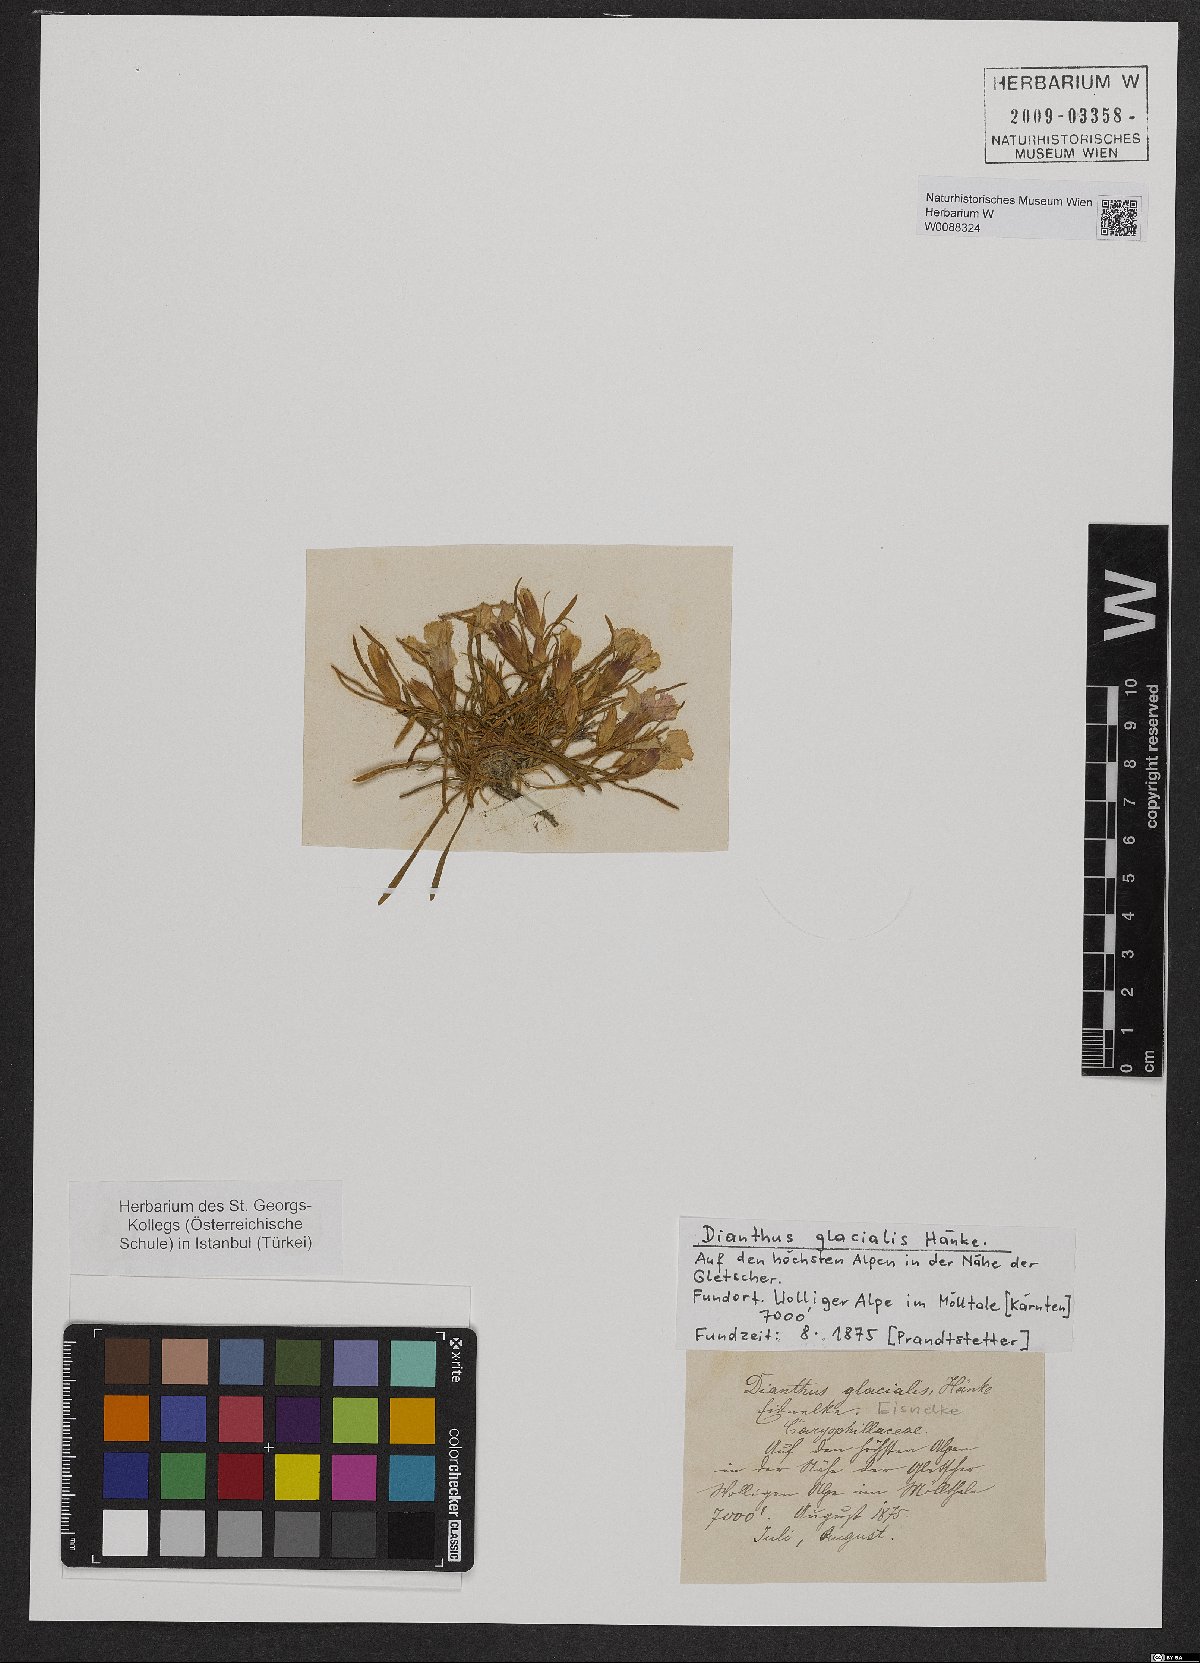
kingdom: Plantae
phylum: Tracheophyta
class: Magnoliopsida
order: Caryophyllales
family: Caryophyllaceae
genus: Dianthus
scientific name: Dianthus glacialis
